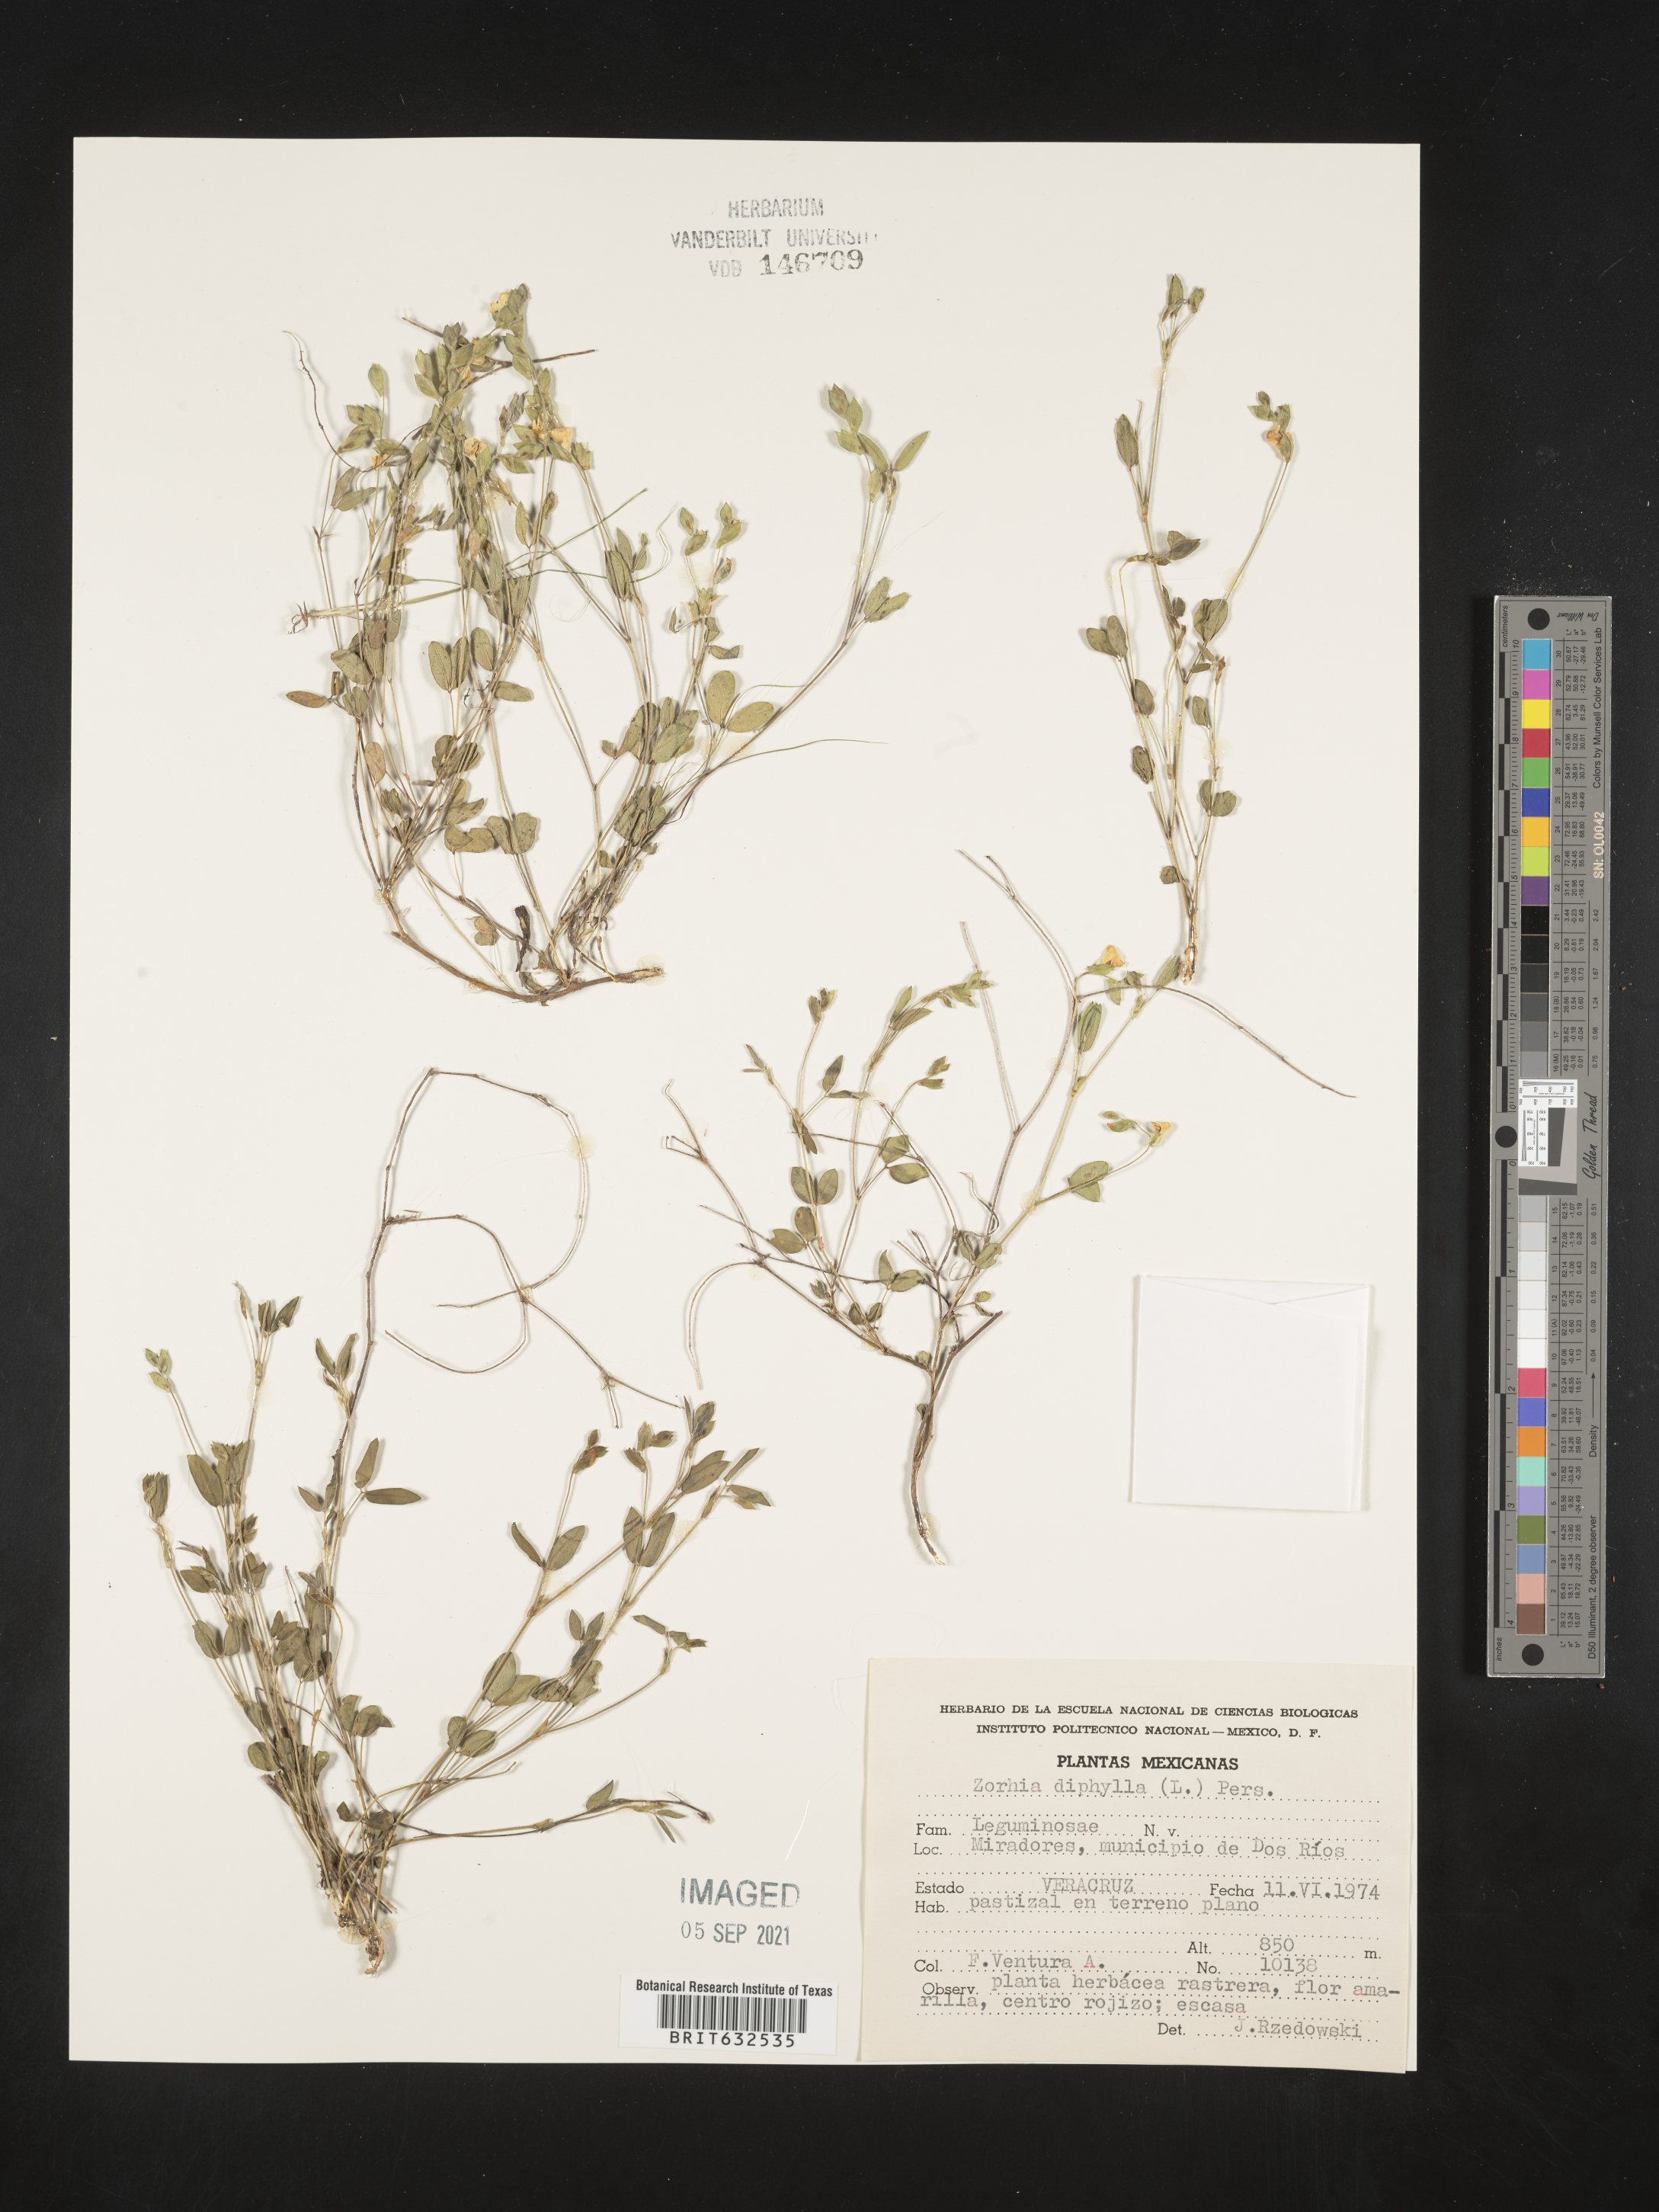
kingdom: Plantae
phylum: Tracheophyta
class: Magnoliopsida
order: Fabales
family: Fabaceae
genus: Zornia
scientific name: Zornia
